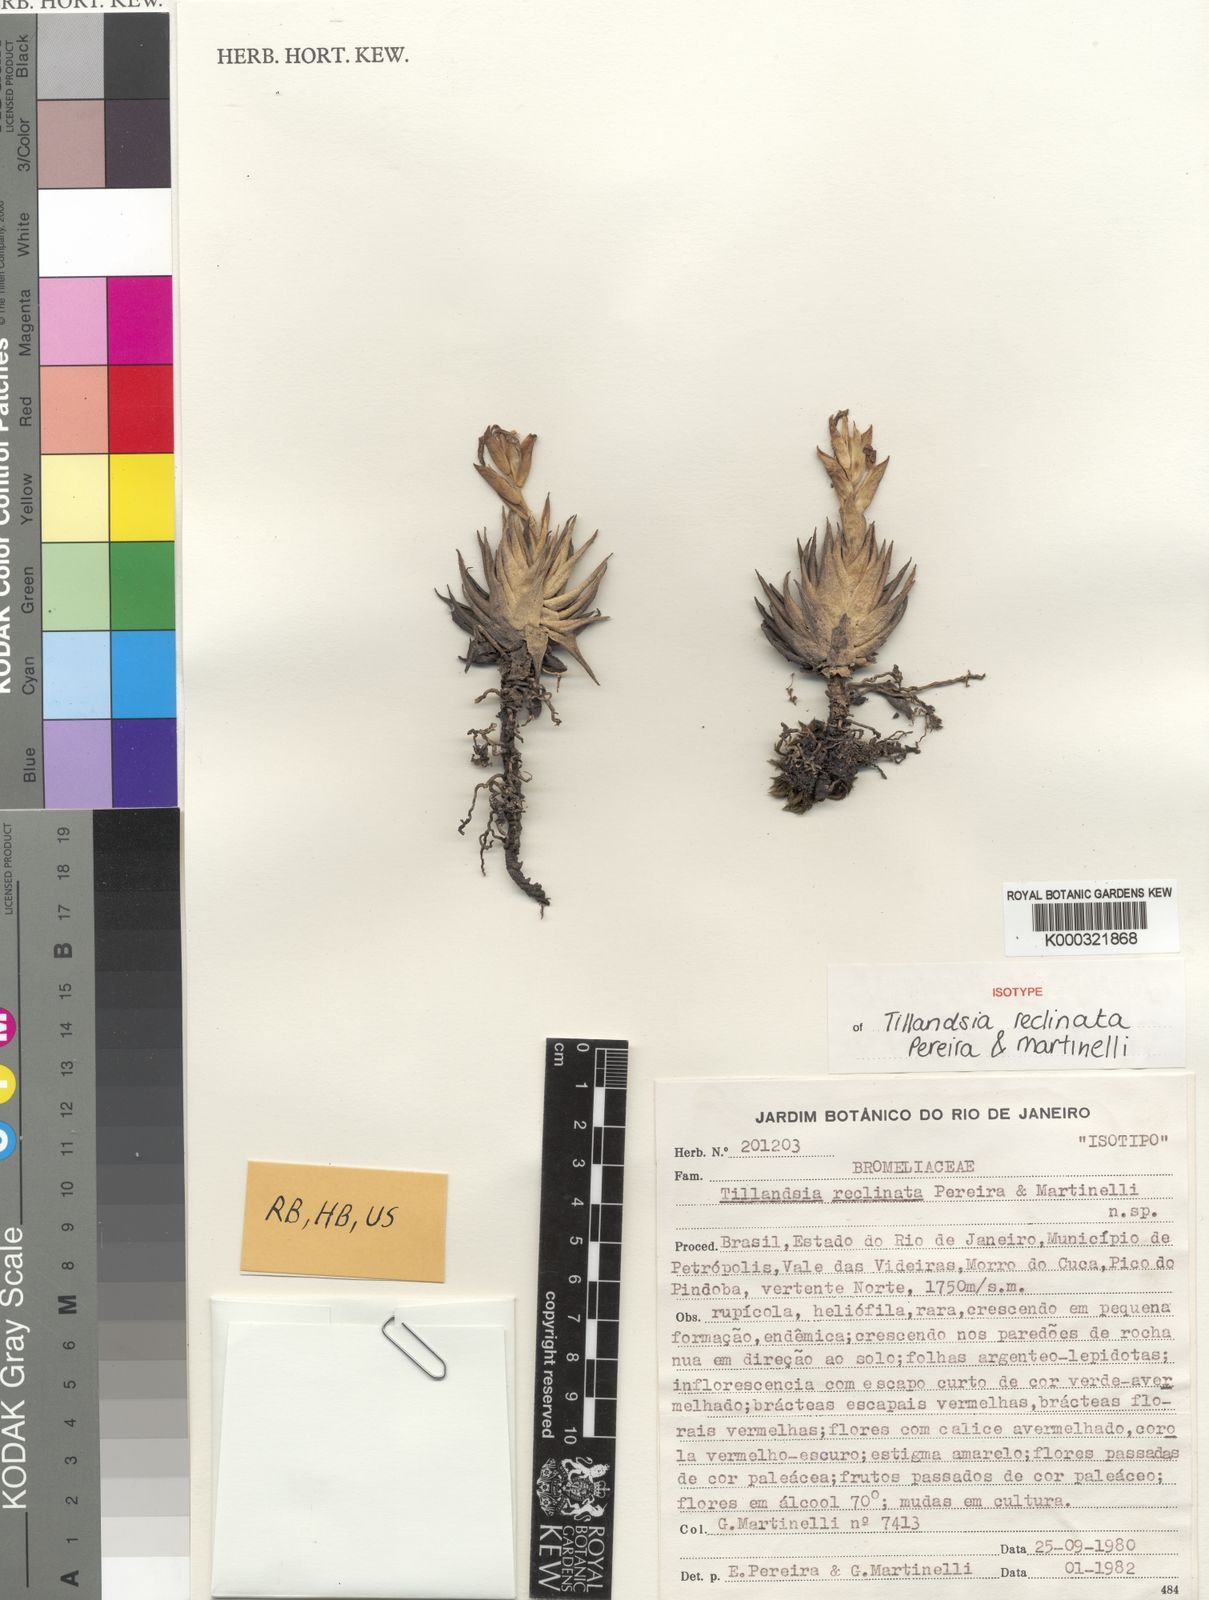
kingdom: Plantae
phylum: Tracheophyta
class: Liliopsida
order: Poales
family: Bromeliaceae
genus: Tillandsia
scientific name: Tillandsia reclinata
